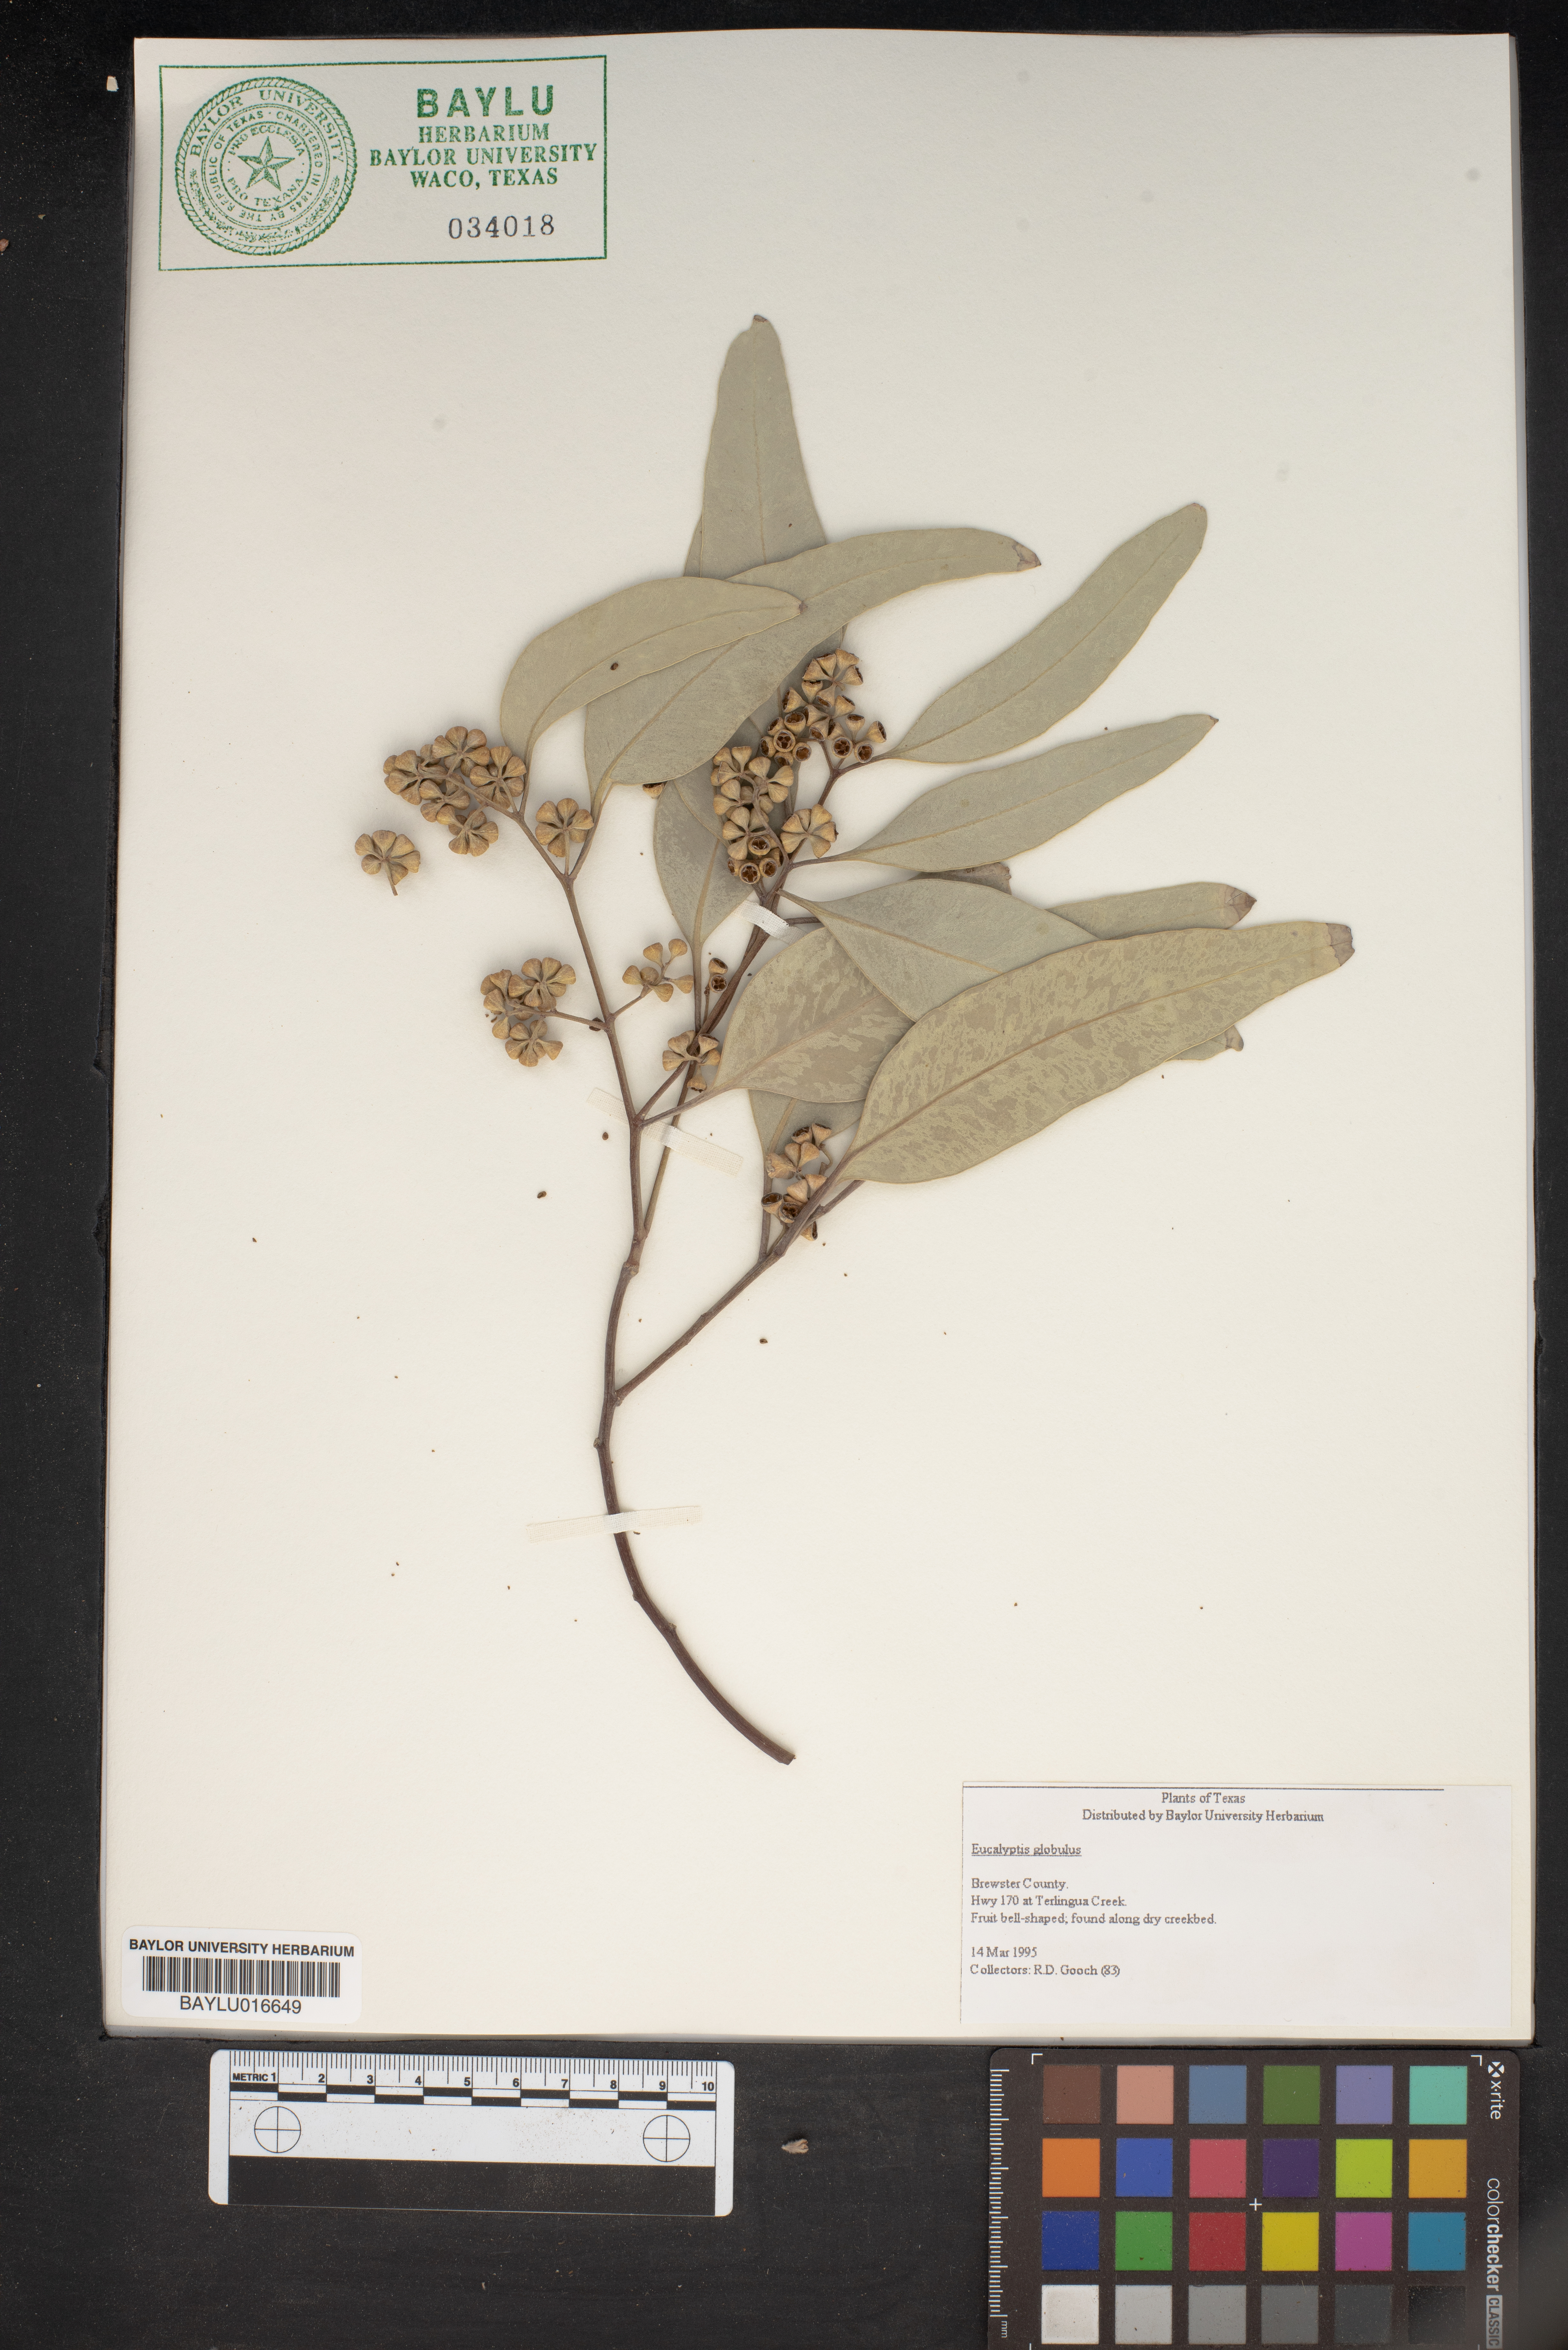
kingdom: Plantae
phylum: Tracheophyta
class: Magnoliopsida
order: Myrtales
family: Myrtaceae
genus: Eucalyptus
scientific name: Eucalyptus globulus
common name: Southern blue-gum
